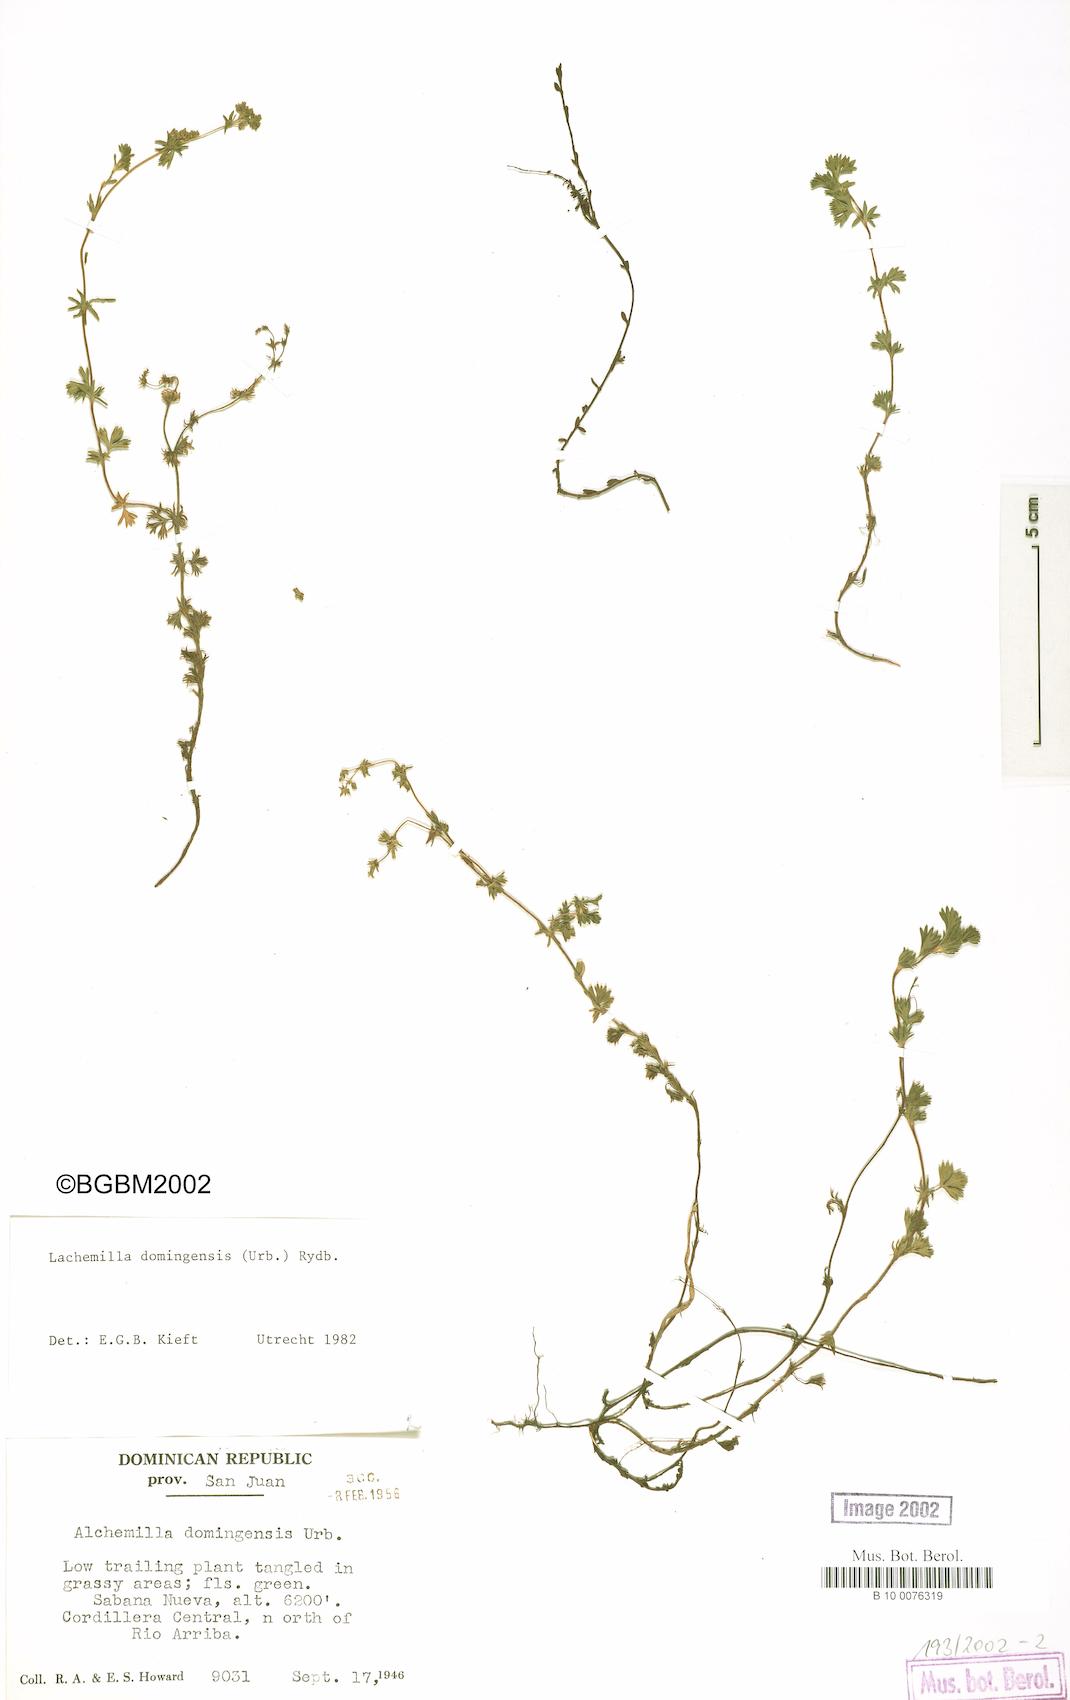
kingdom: Plantae
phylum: Tracheophyta
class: Magnoliopsida
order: Rosales
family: Rosaceae
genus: Lachemilla
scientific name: Lachemilla domingensis
